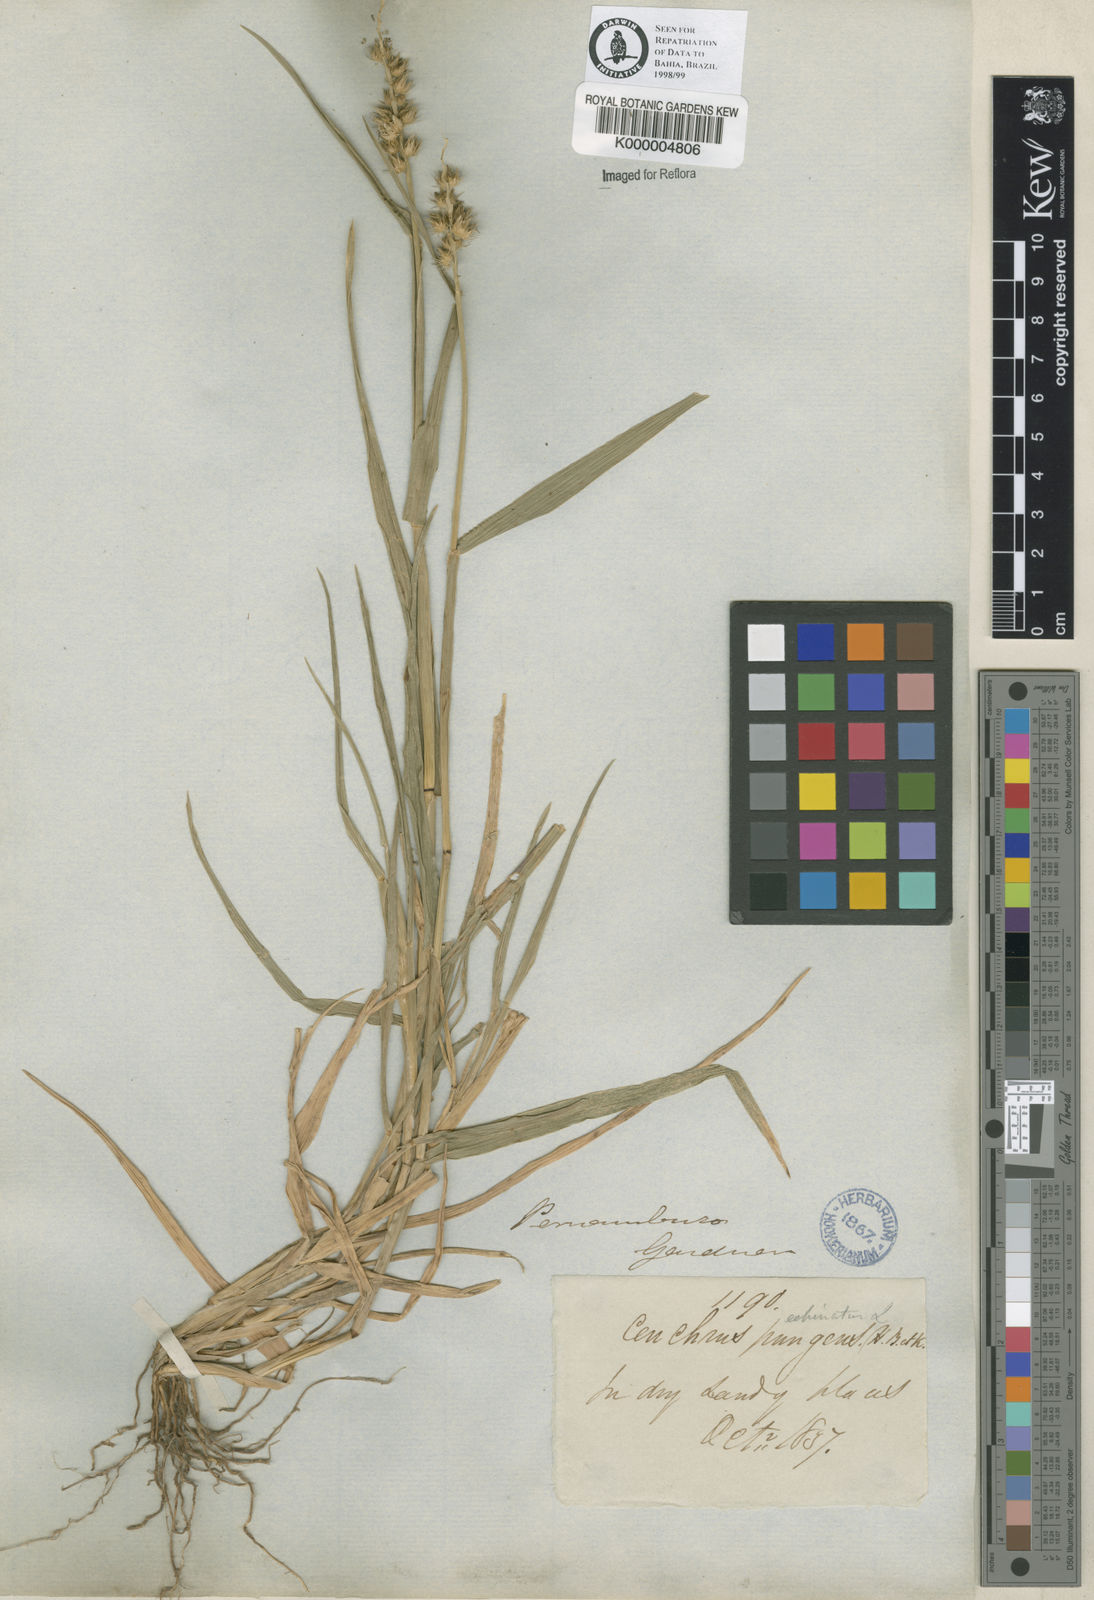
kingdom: Plantae
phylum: Tracheophyta
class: Liliopsida
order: Poales
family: Poaceae
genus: Cenchrus
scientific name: Cenchrus echinatus
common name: Southern sandbur
